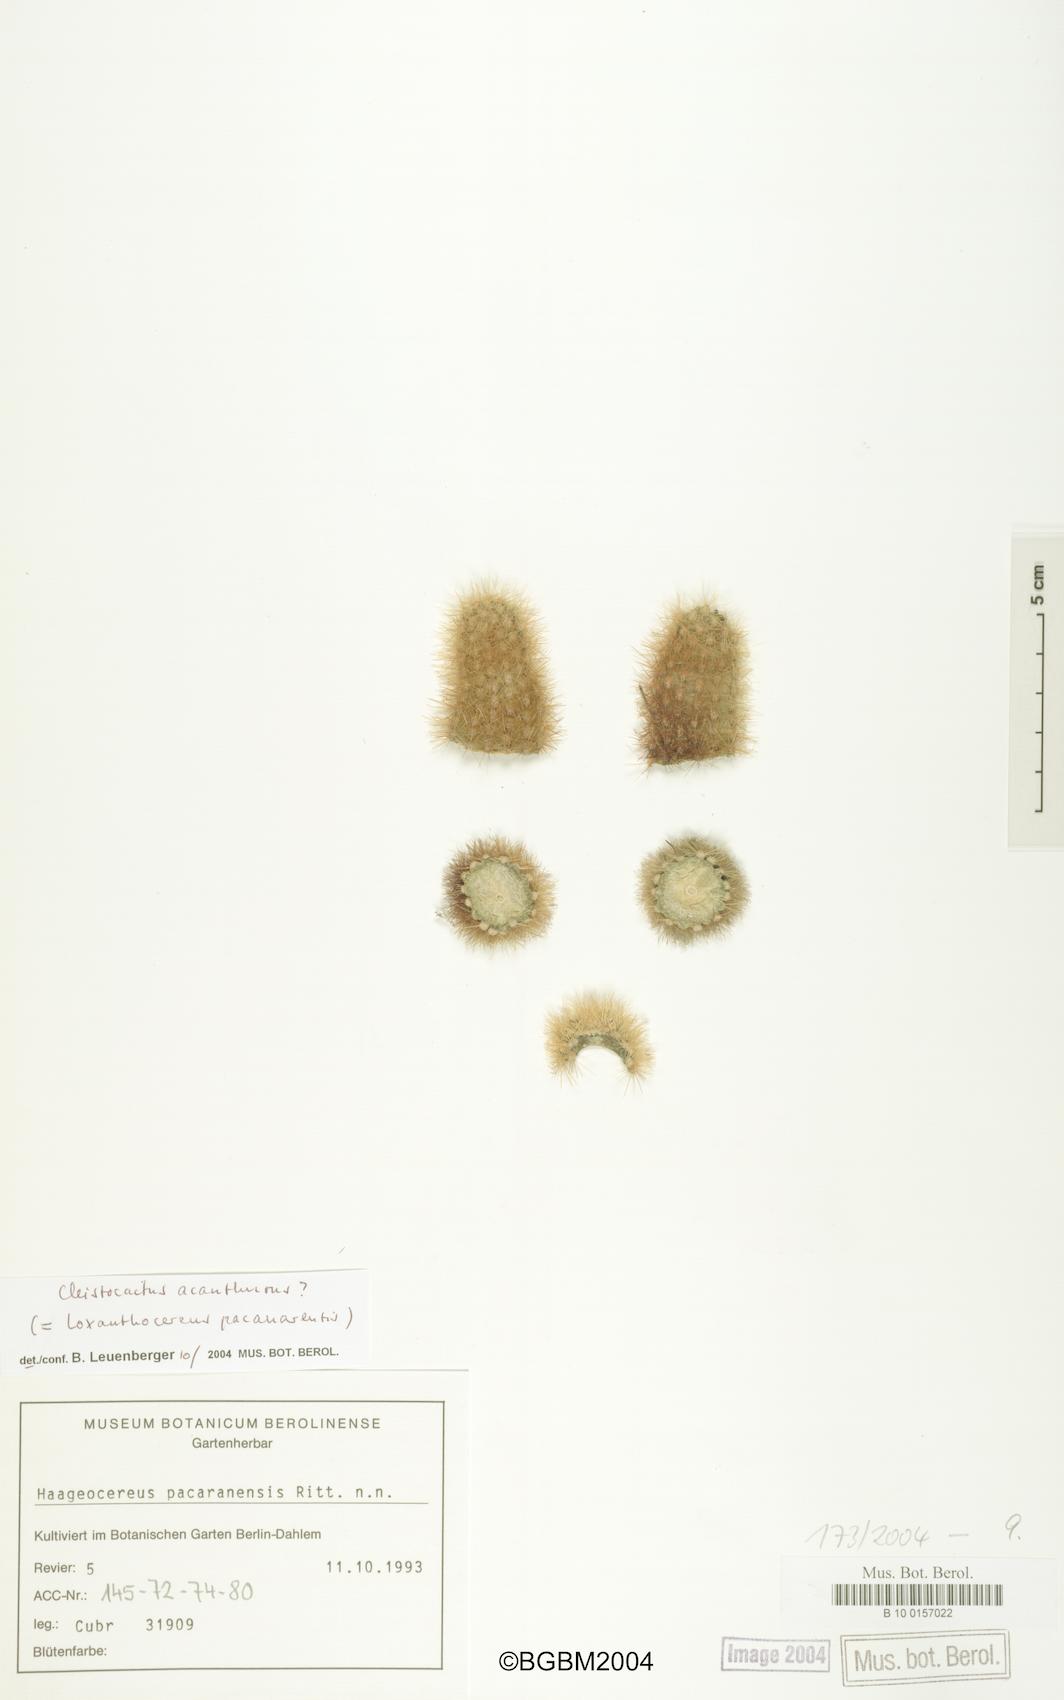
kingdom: Plantae
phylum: Tracheophyta
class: Magnoliopsida
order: Caryophyllales
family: Cactaceae
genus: Borzicactus
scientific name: Borzicactus acanthurus
